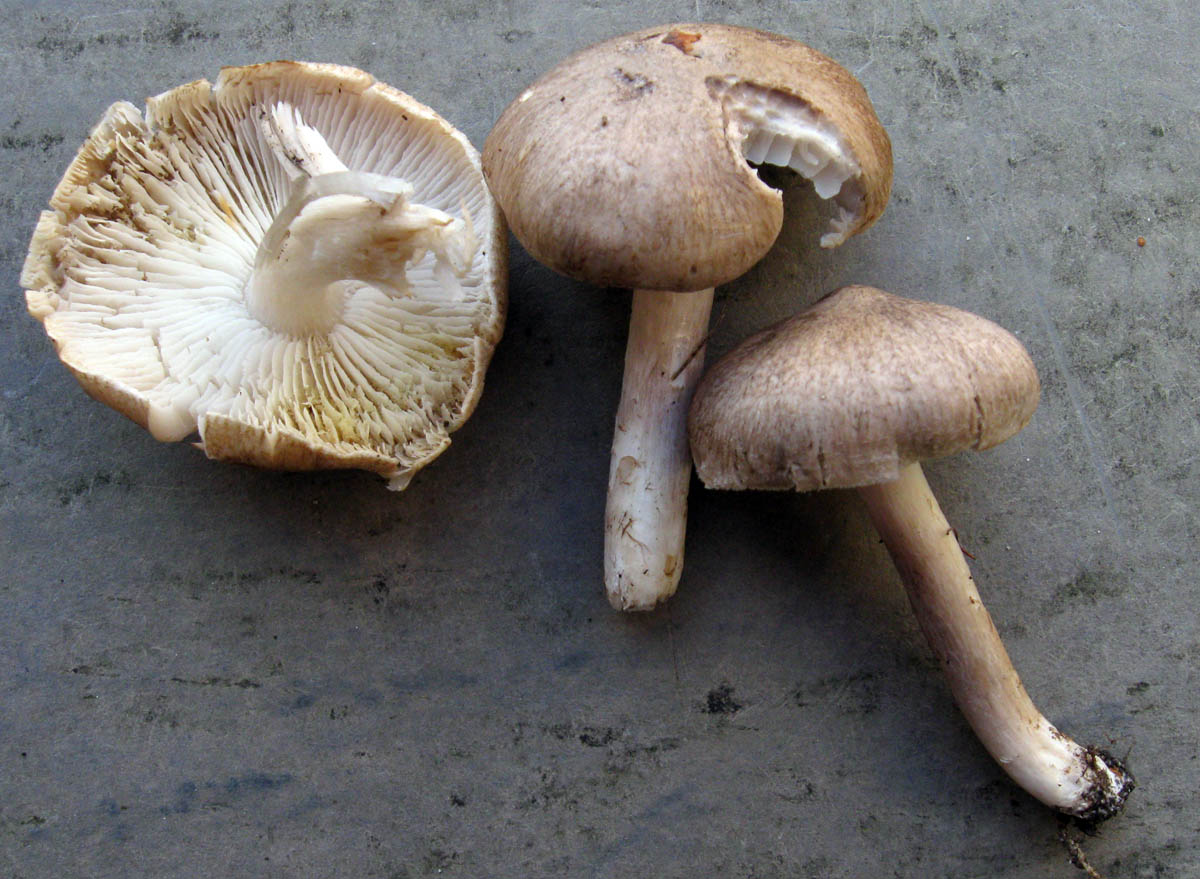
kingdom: Fungi
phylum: Basidiomycota
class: Agaricomycetes
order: Agaricales
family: Tricholomataceae
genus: Tricholoma
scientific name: Tricholoma scalpturatum
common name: gulplettet ridderhat
